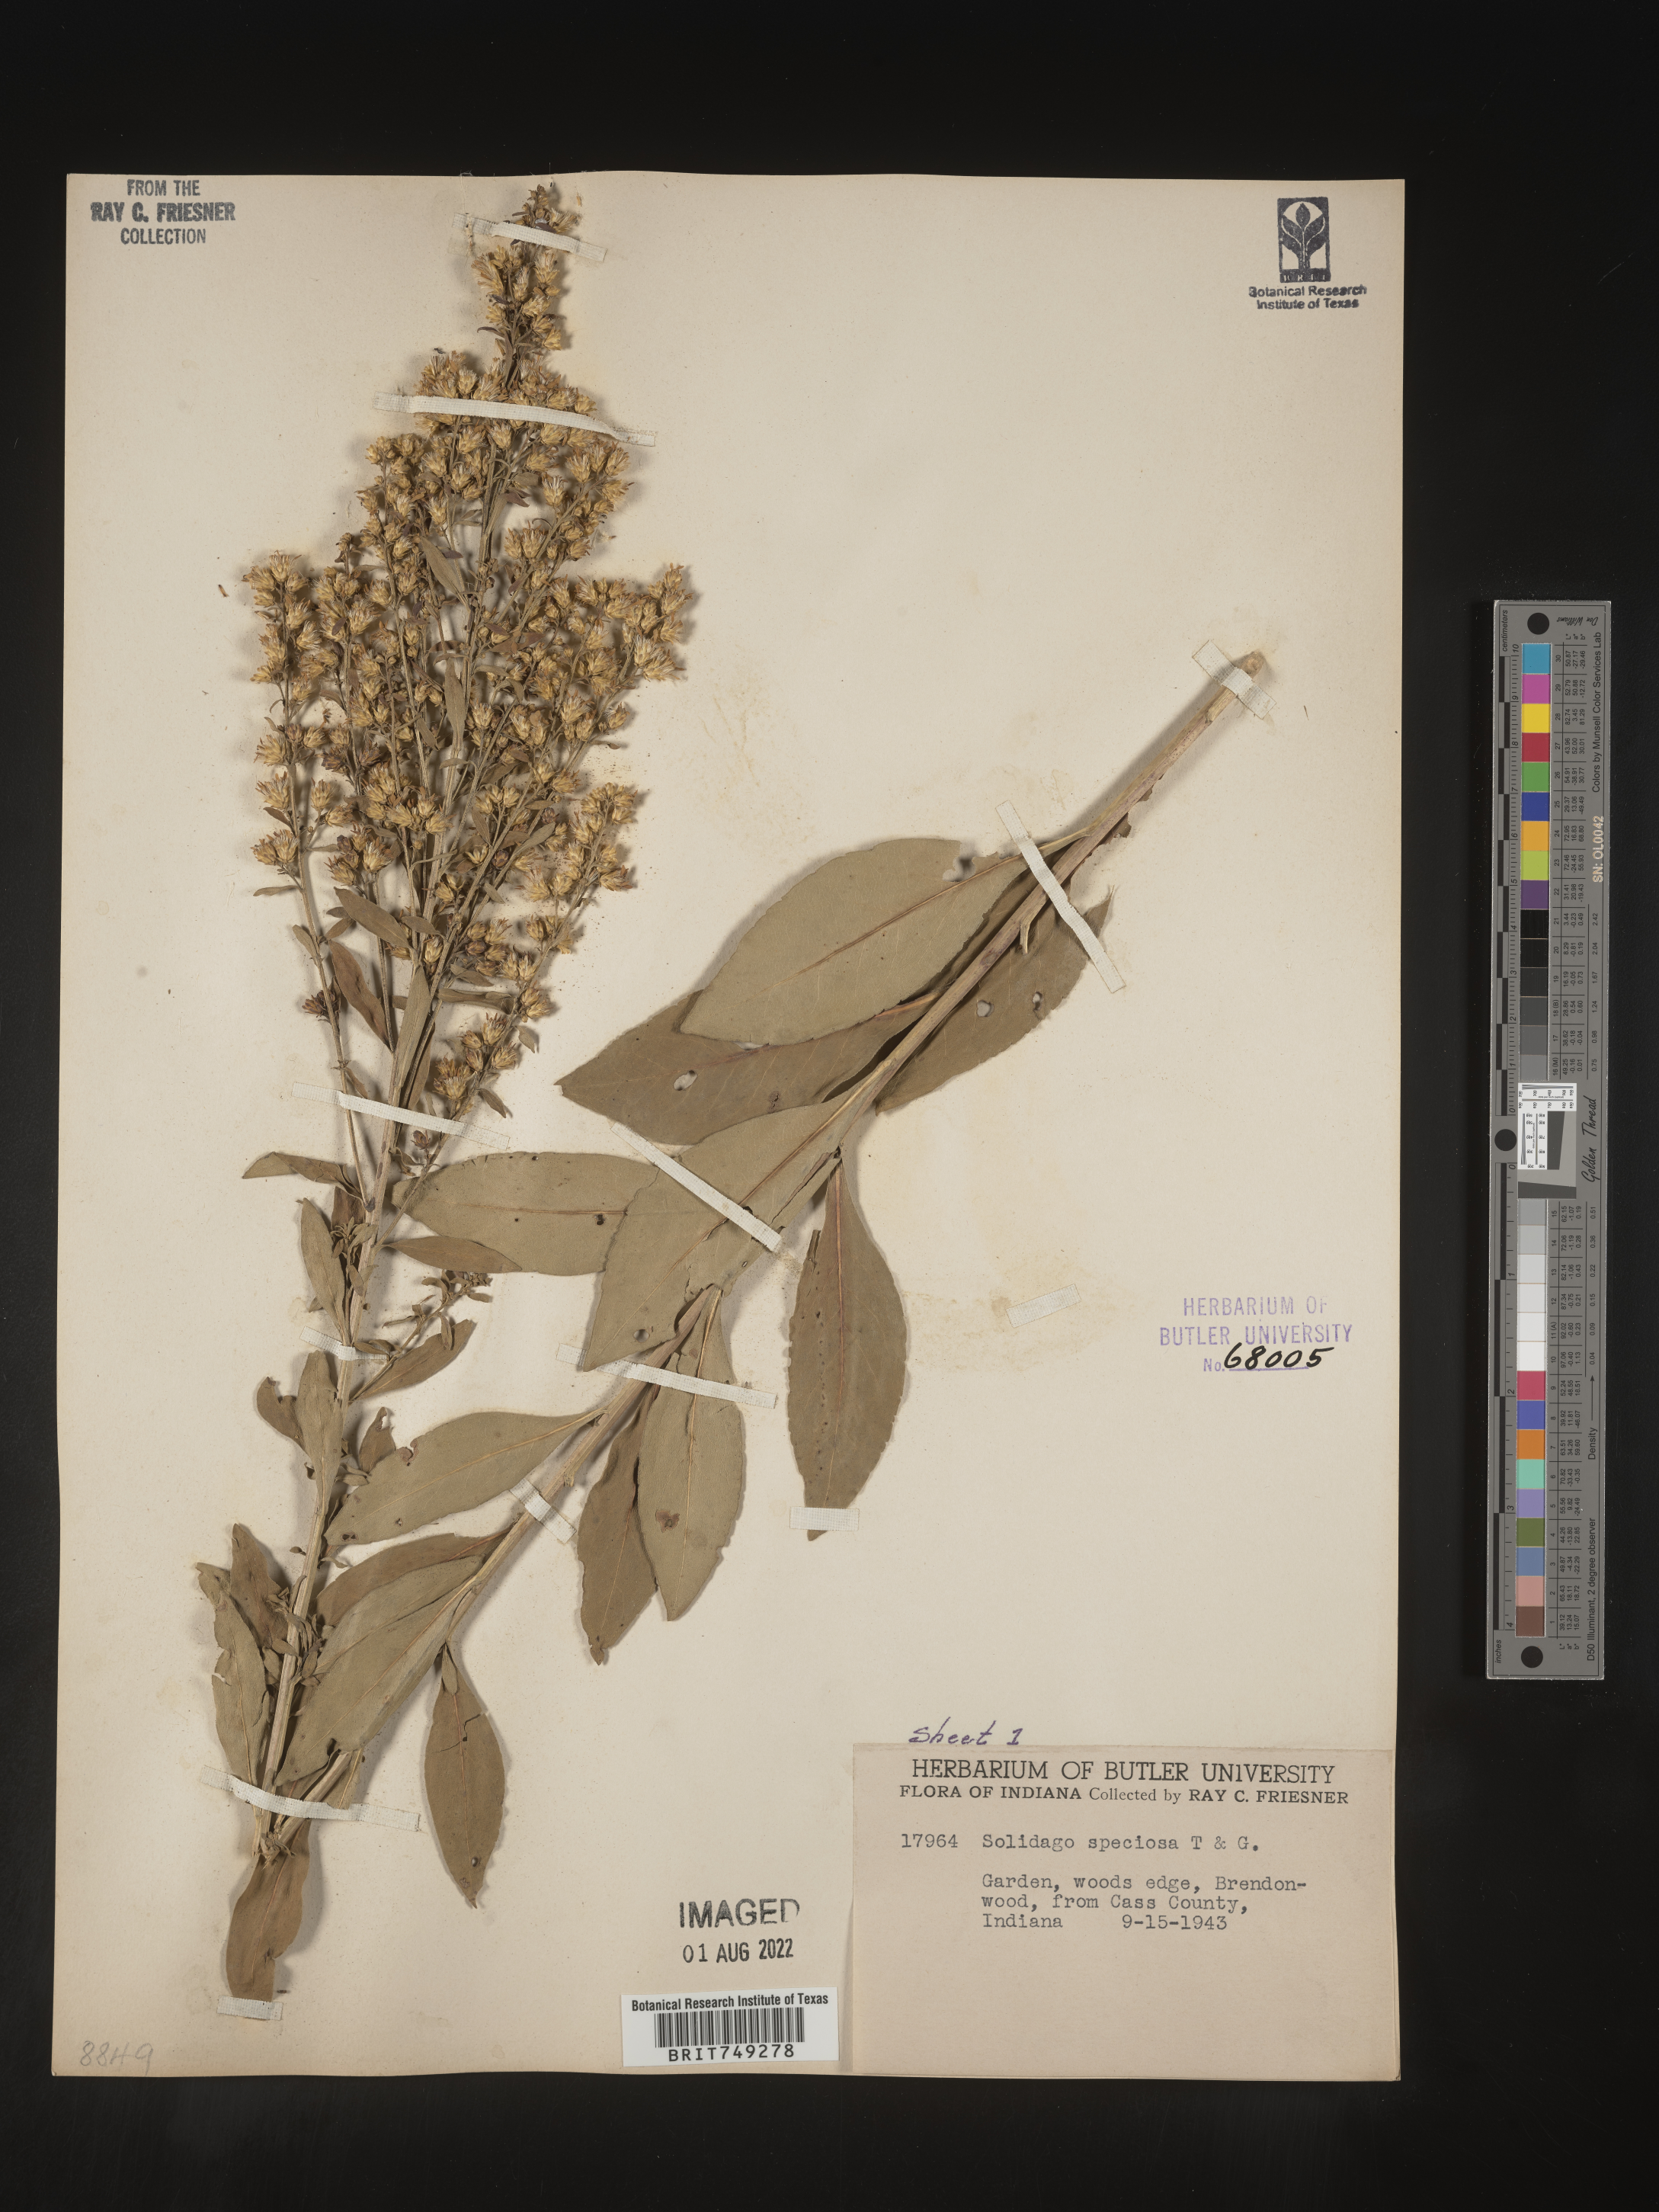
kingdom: Plantae
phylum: Tracheophyta
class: Magnoliopsida
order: Asterales
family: Asteraceae
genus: Solidago
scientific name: Solidago speciosa
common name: Showy goldenrod
